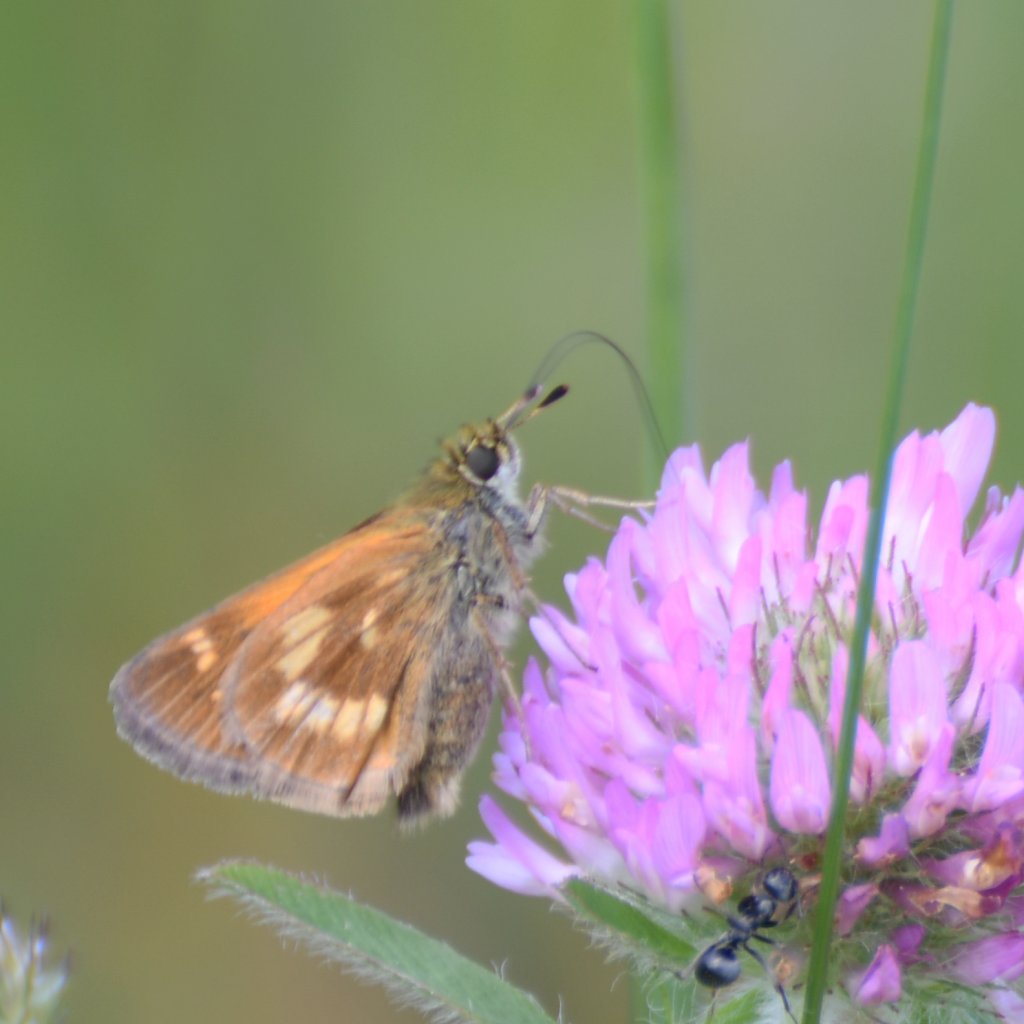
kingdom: Animalia
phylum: Arthropoda
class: Insecta
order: Lepidoptera
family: Hesperiidae
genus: Polites
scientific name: Polites
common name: Long Dash Skipper
